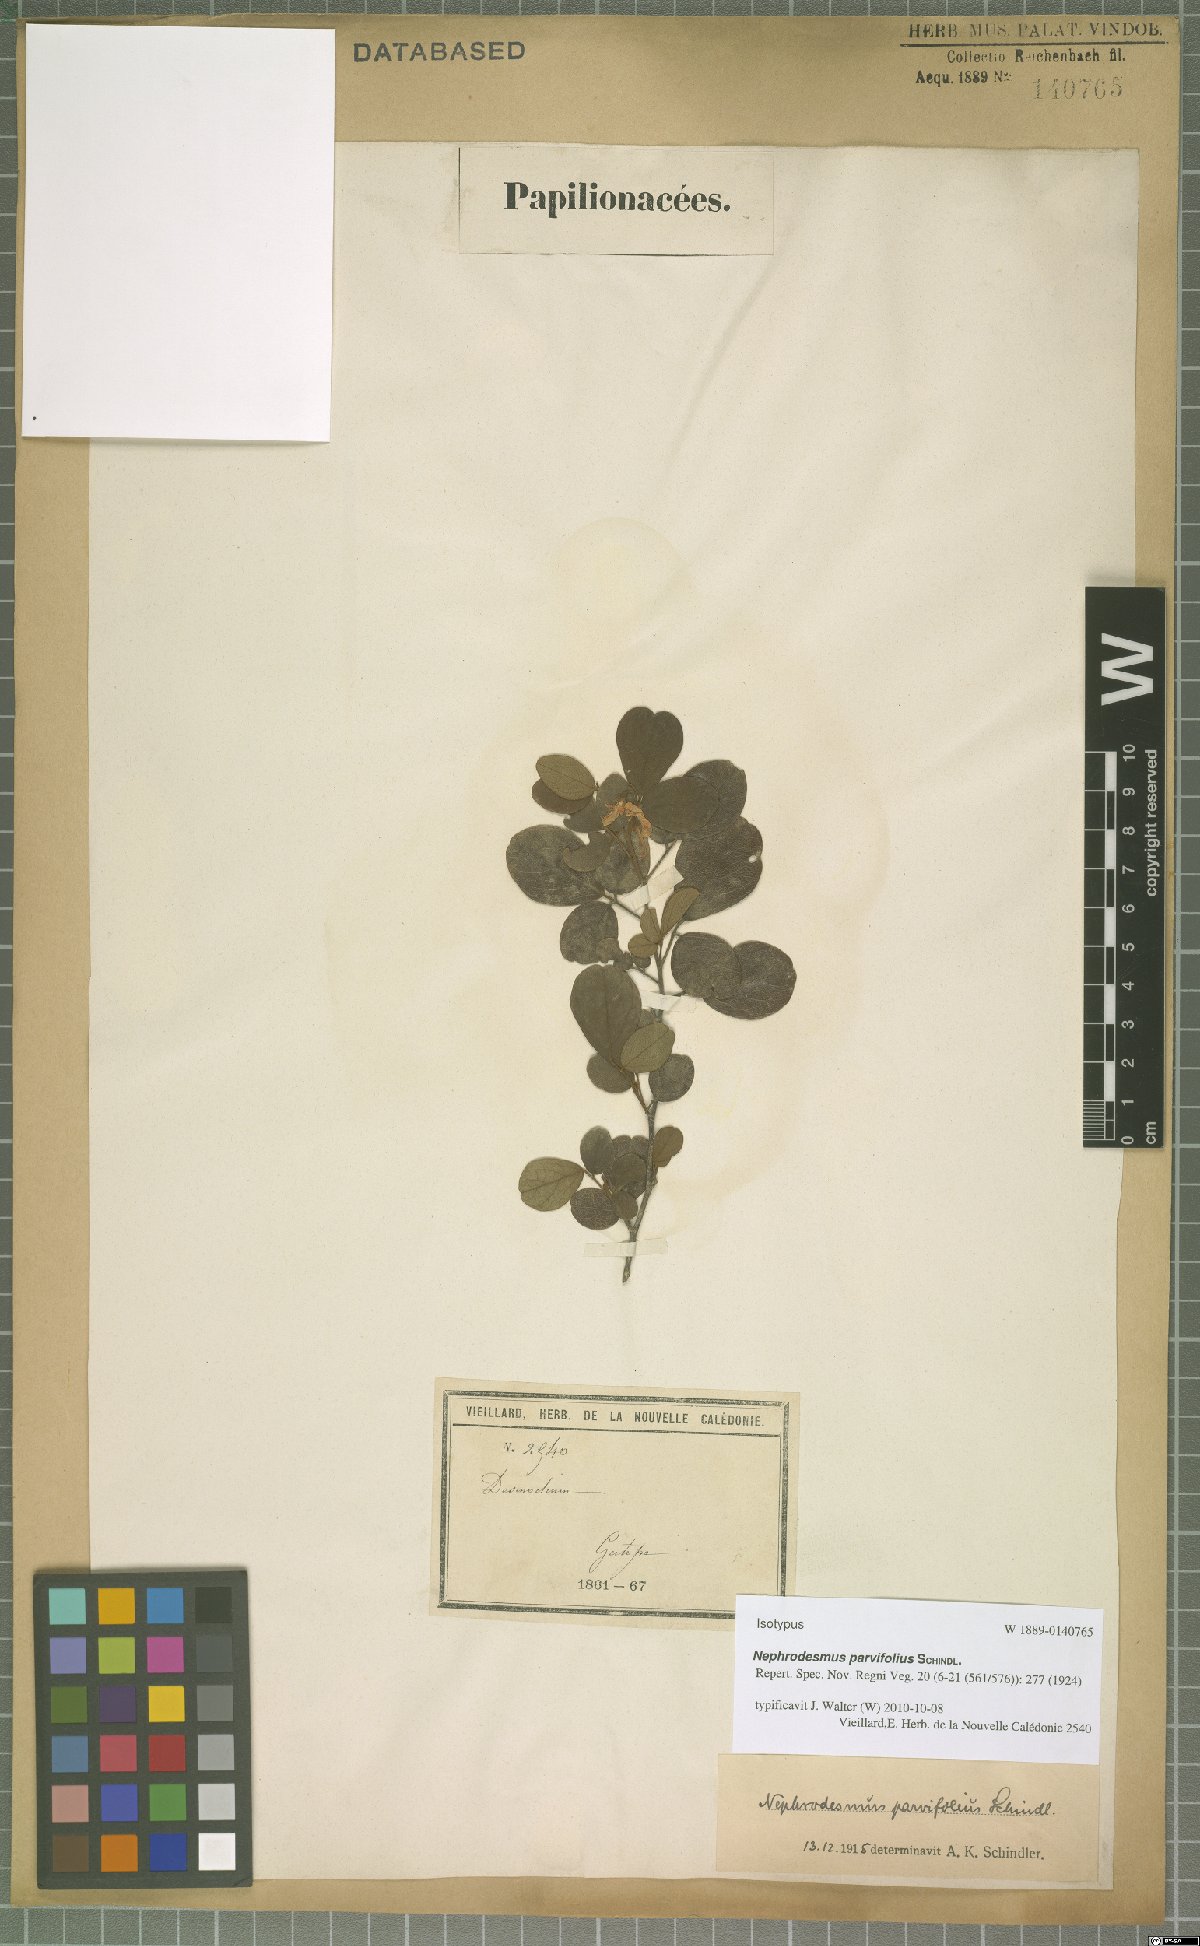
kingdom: Plantae
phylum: Tracheophyta
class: Magnoliopsida
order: Fabales
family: Fabaceae
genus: Nephrodesmus
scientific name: Nephrodesmus parvifolius
